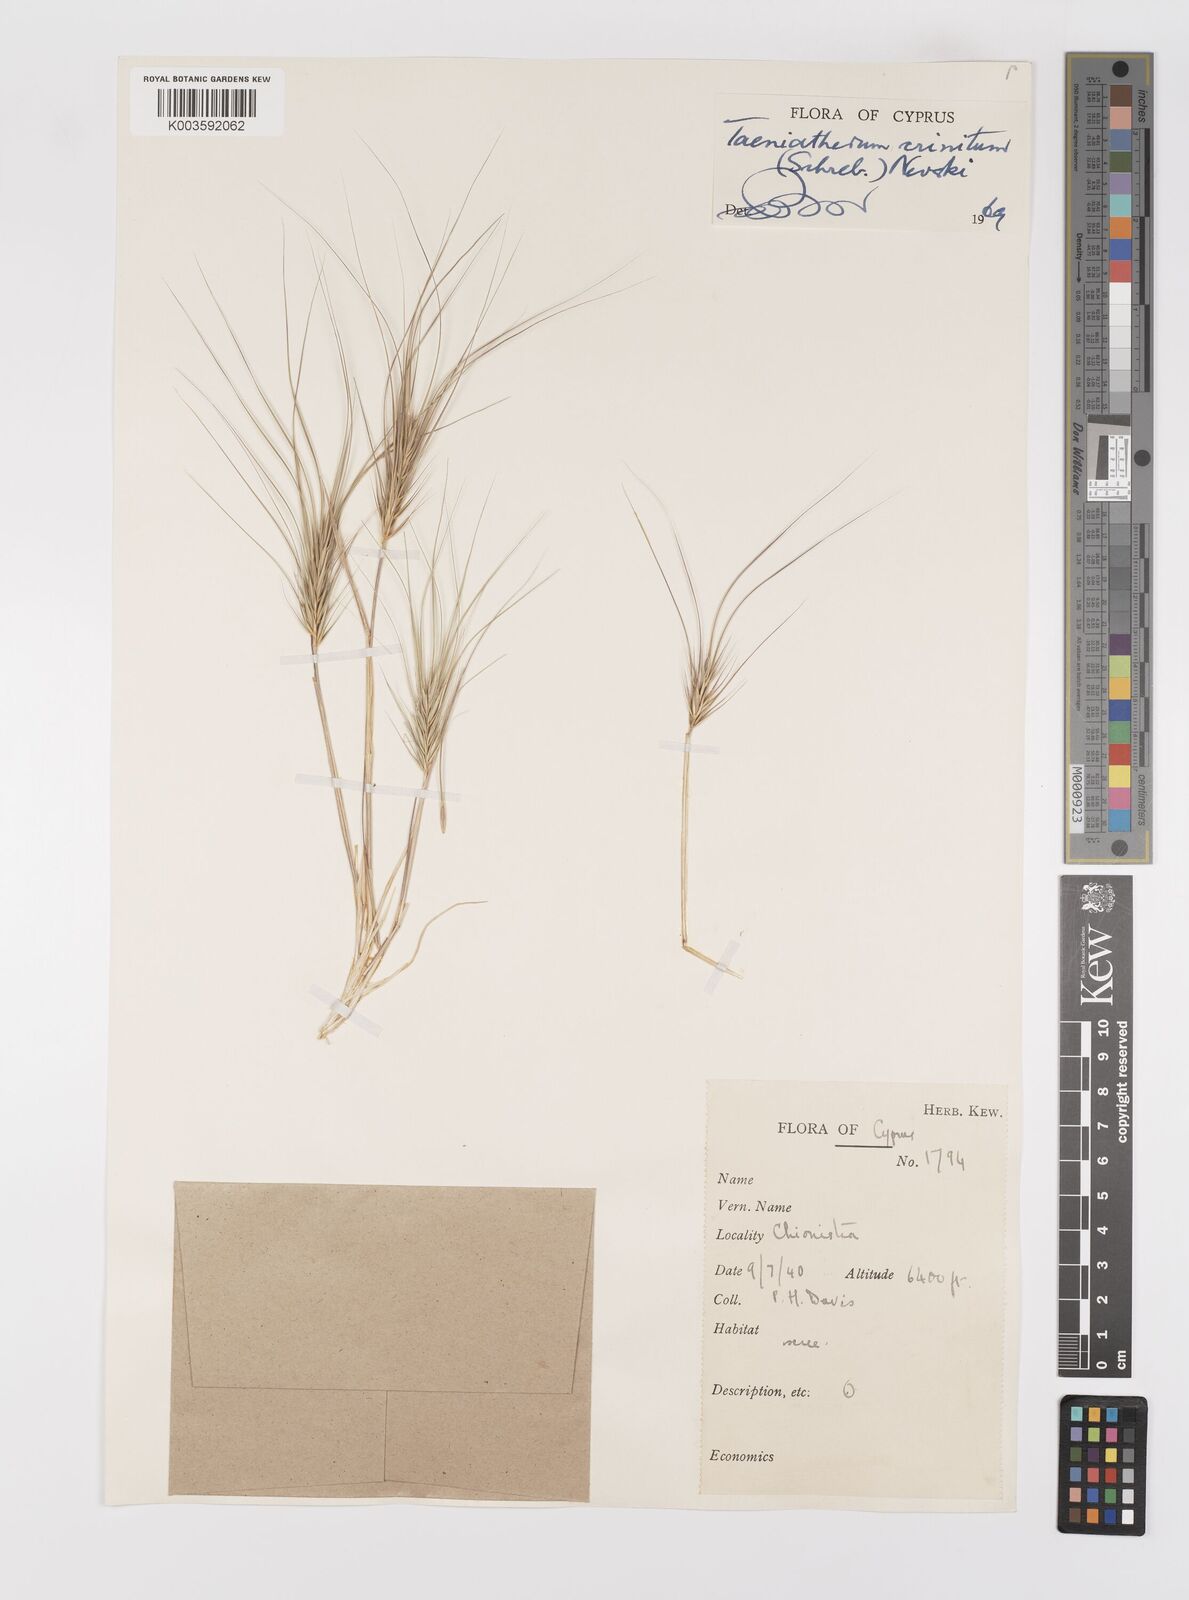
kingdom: Plantae
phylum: Tracheophyta
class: Liliopsida
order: Poales
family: Poaceae
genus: Taeniatherum
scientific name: Taeniatherum caput-medusae
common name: Medusahead
